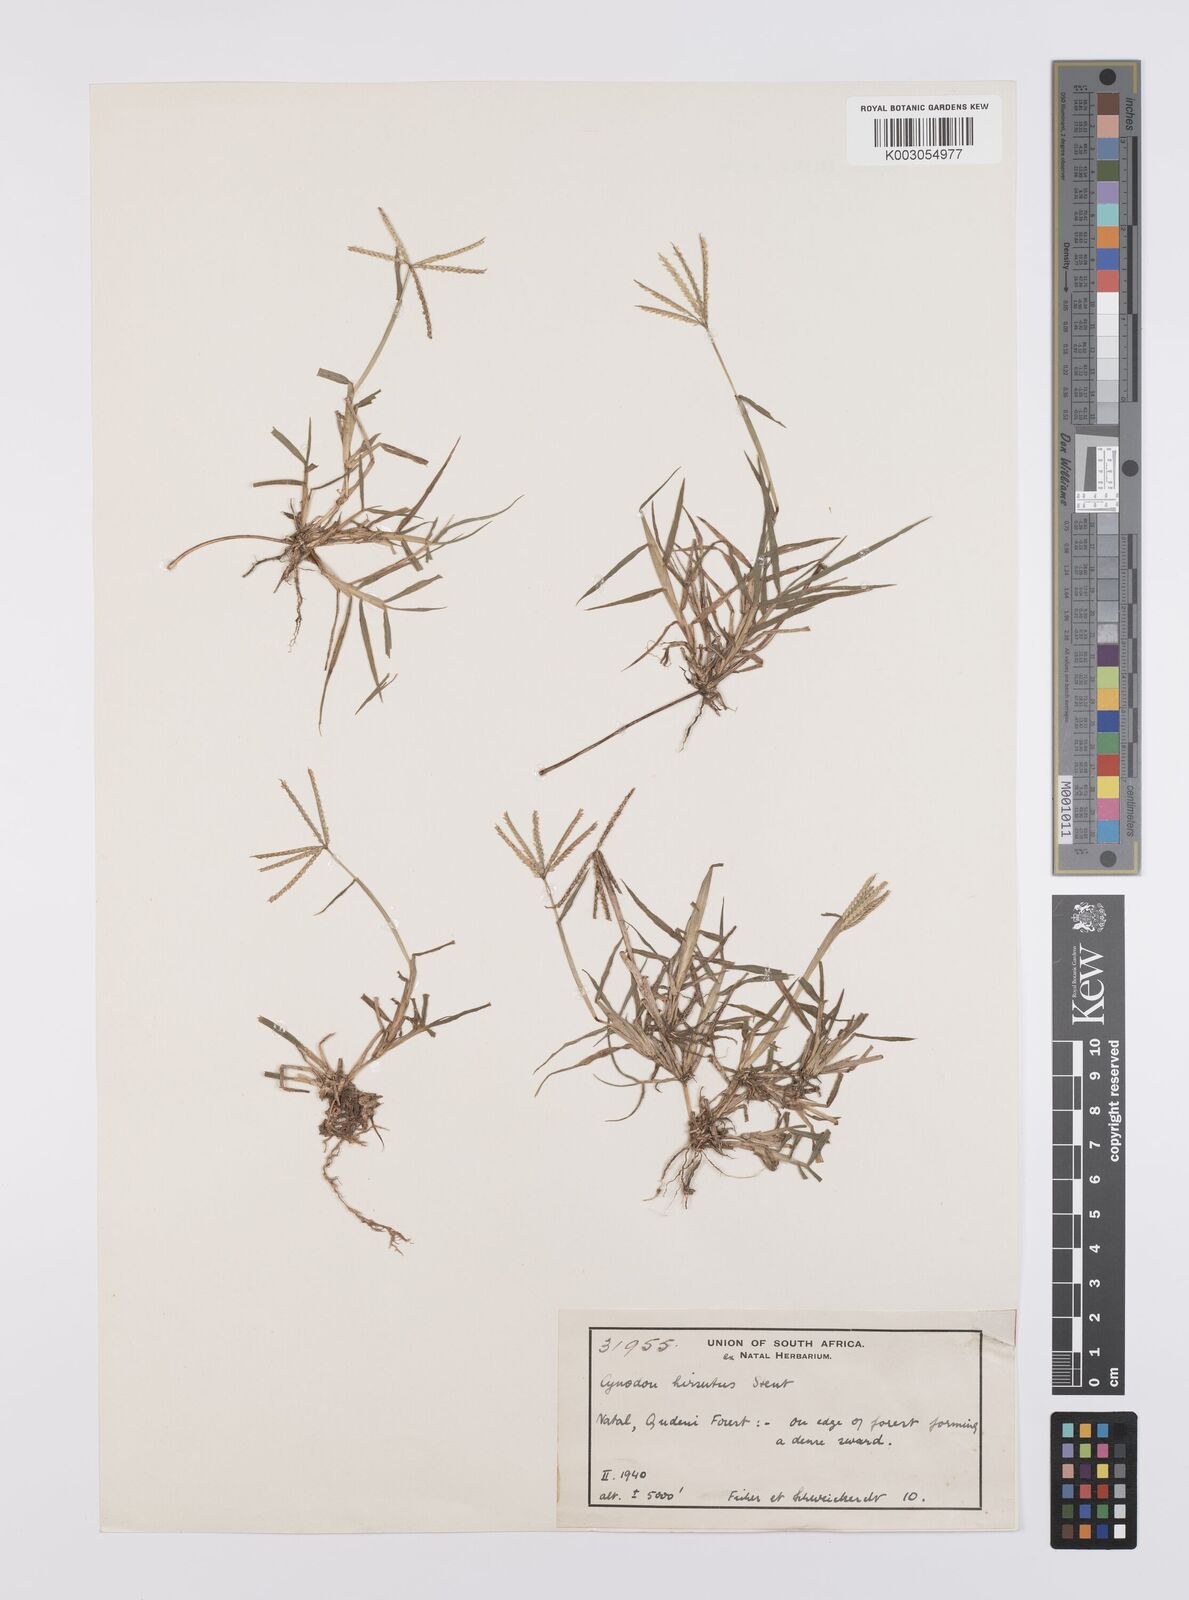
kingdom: Plantae
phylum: Tracheophyta
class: Liliopsida
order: Poales
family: Poaceae
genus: Cynodon
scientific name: Cynodon incompletus
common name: African bermuda-grass
